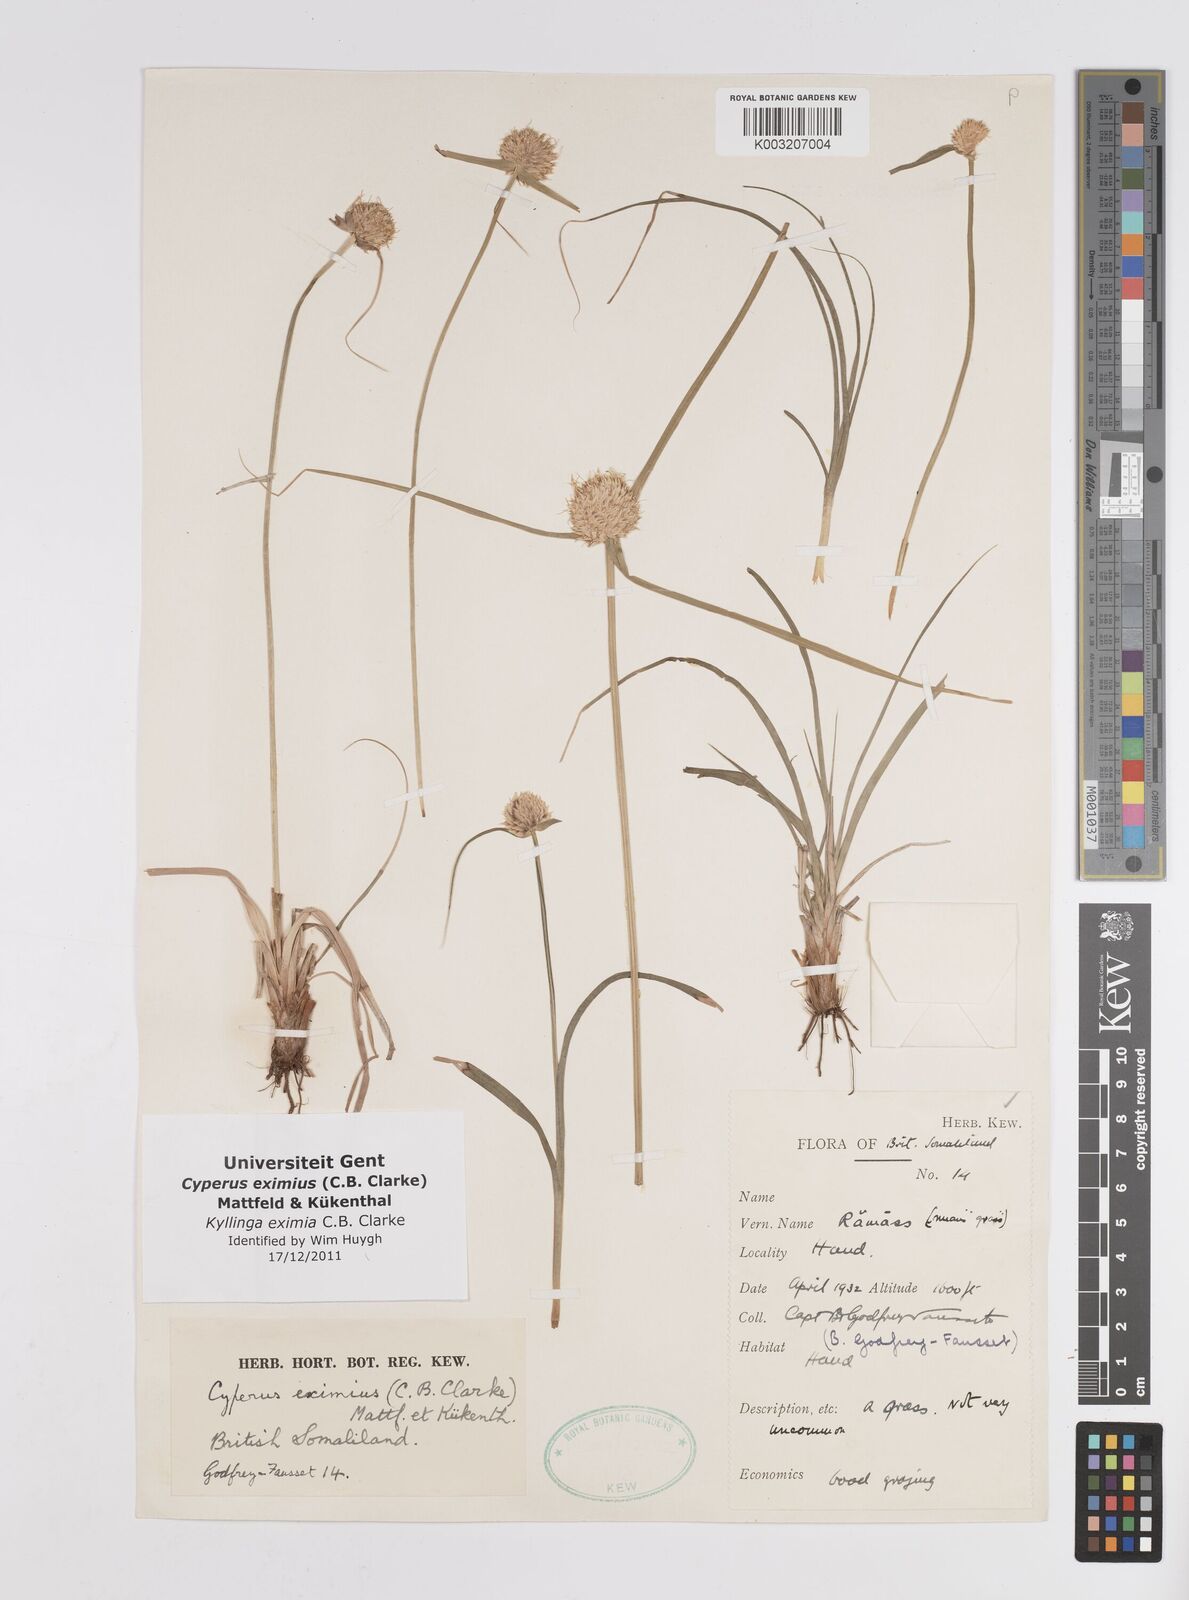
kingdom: Plantae
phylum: Tracheophyta
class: Liliopsida
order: Poales
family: Cyperaceae
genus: Cyperus
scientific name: Cyperus eximius
